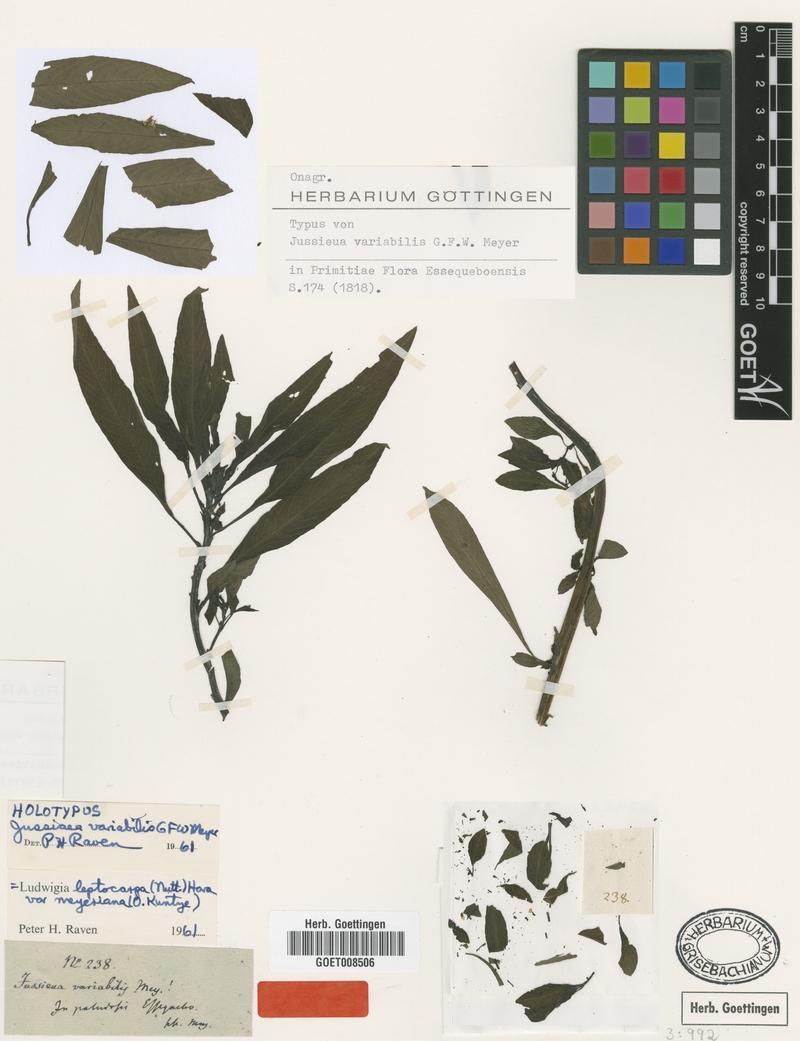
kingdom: Plantae
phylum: Tracheophyta
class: Magnoliopsida
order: Myrtales
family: Onagraceae
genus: Ludwigia
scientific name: Ludwigia leptocarpa
